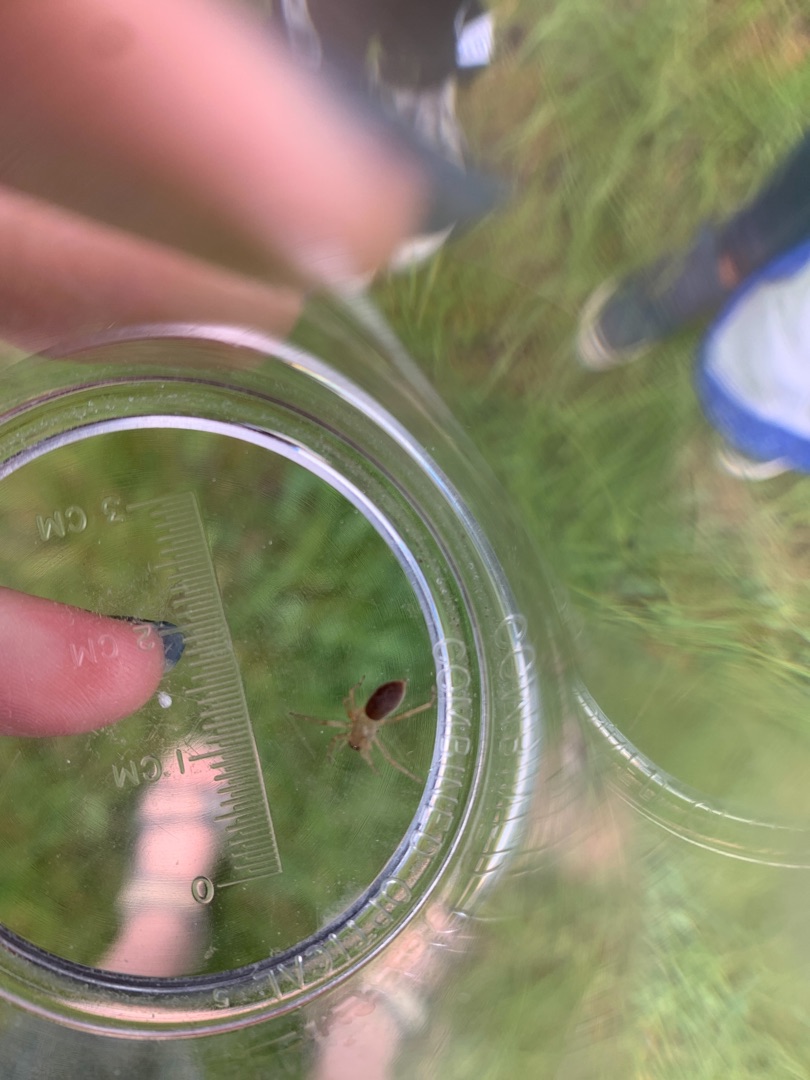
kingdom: Animalia
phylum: Arthropoda
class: Arachnida
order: Araneae
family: Clubionidae
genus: Clubiona
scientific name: Clubiona
